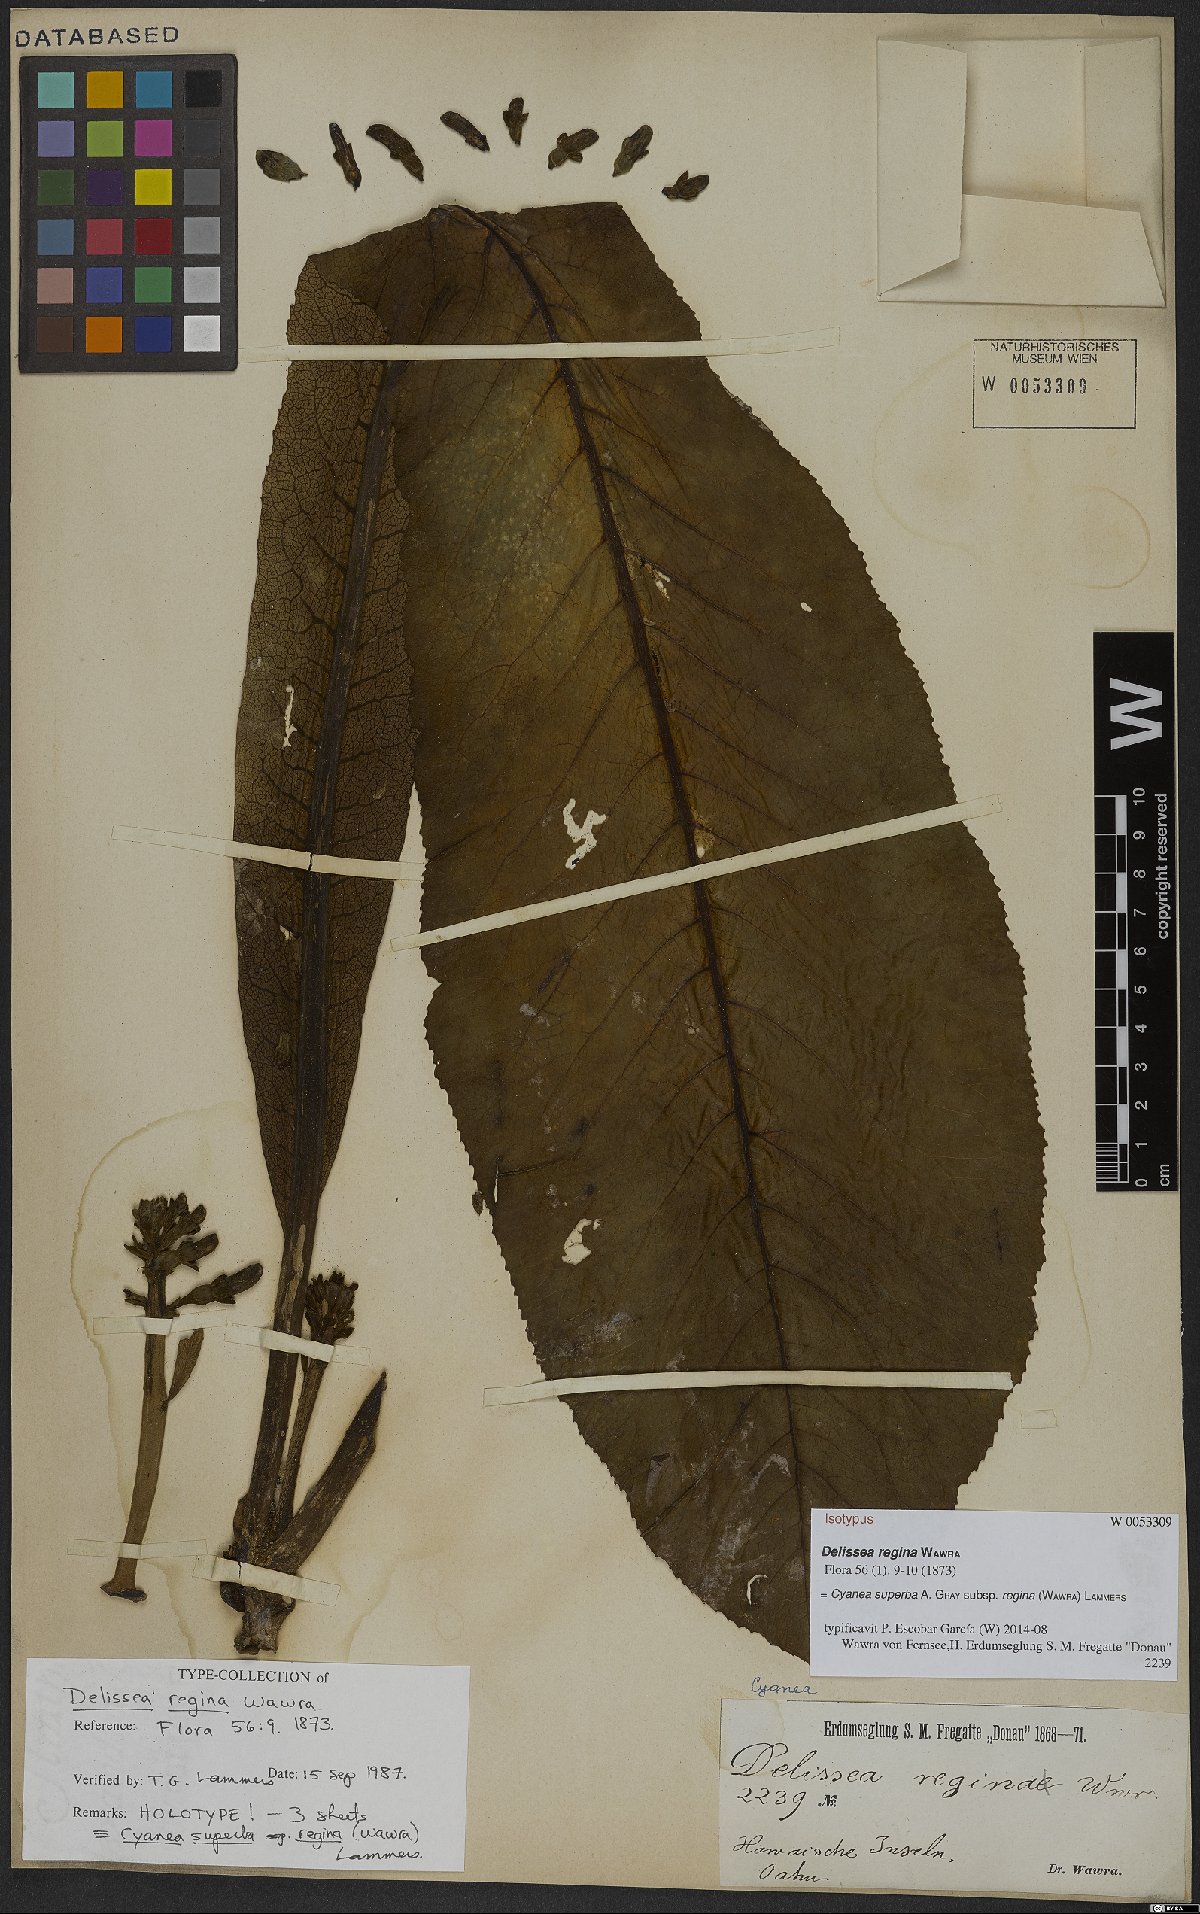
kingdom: Plantae
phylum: Tracheophyta
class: Magnoliopsida
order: Asterales
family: Campanulaceae
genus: Cyanea
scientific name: Cyanea superba
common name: Superb cyanea
